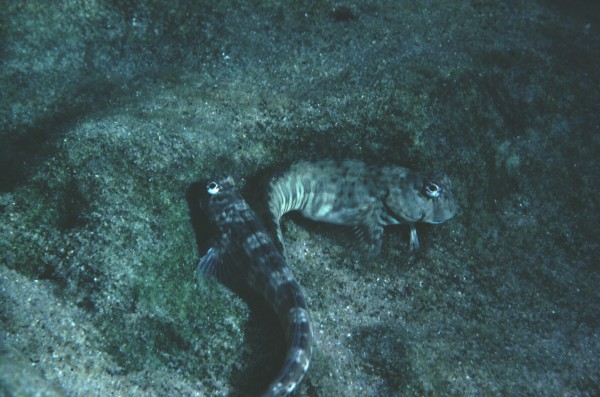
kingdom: Animalia
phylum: Chordata
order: Perciformes
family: Blenniidae
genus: Istiblennius
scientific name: Istiblennius dussumieri
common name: Dussumier's rockskipper
